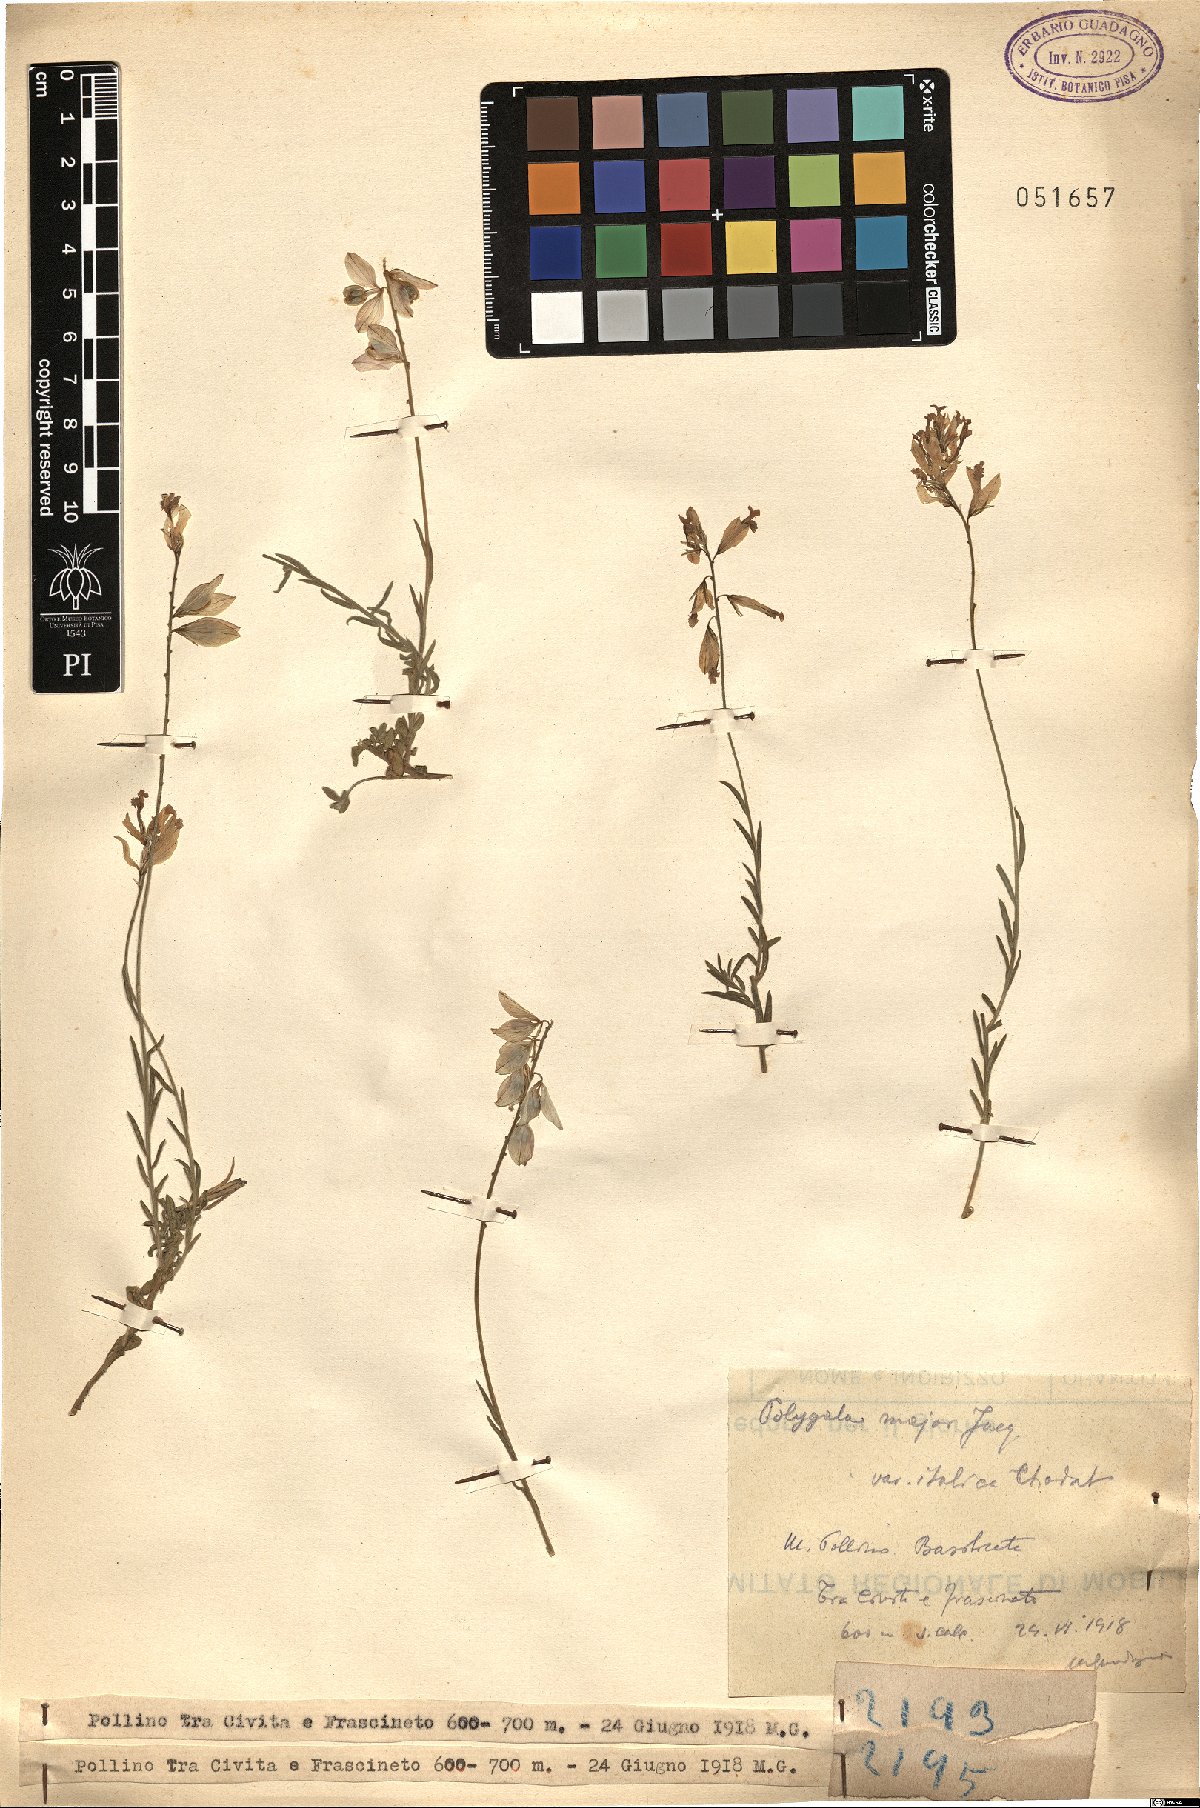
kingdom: Plantae
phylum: Tracheophyta
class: Magnoliopsida
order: Fabales
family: Polygalaceae
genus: Polygala
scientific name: Polygala major
